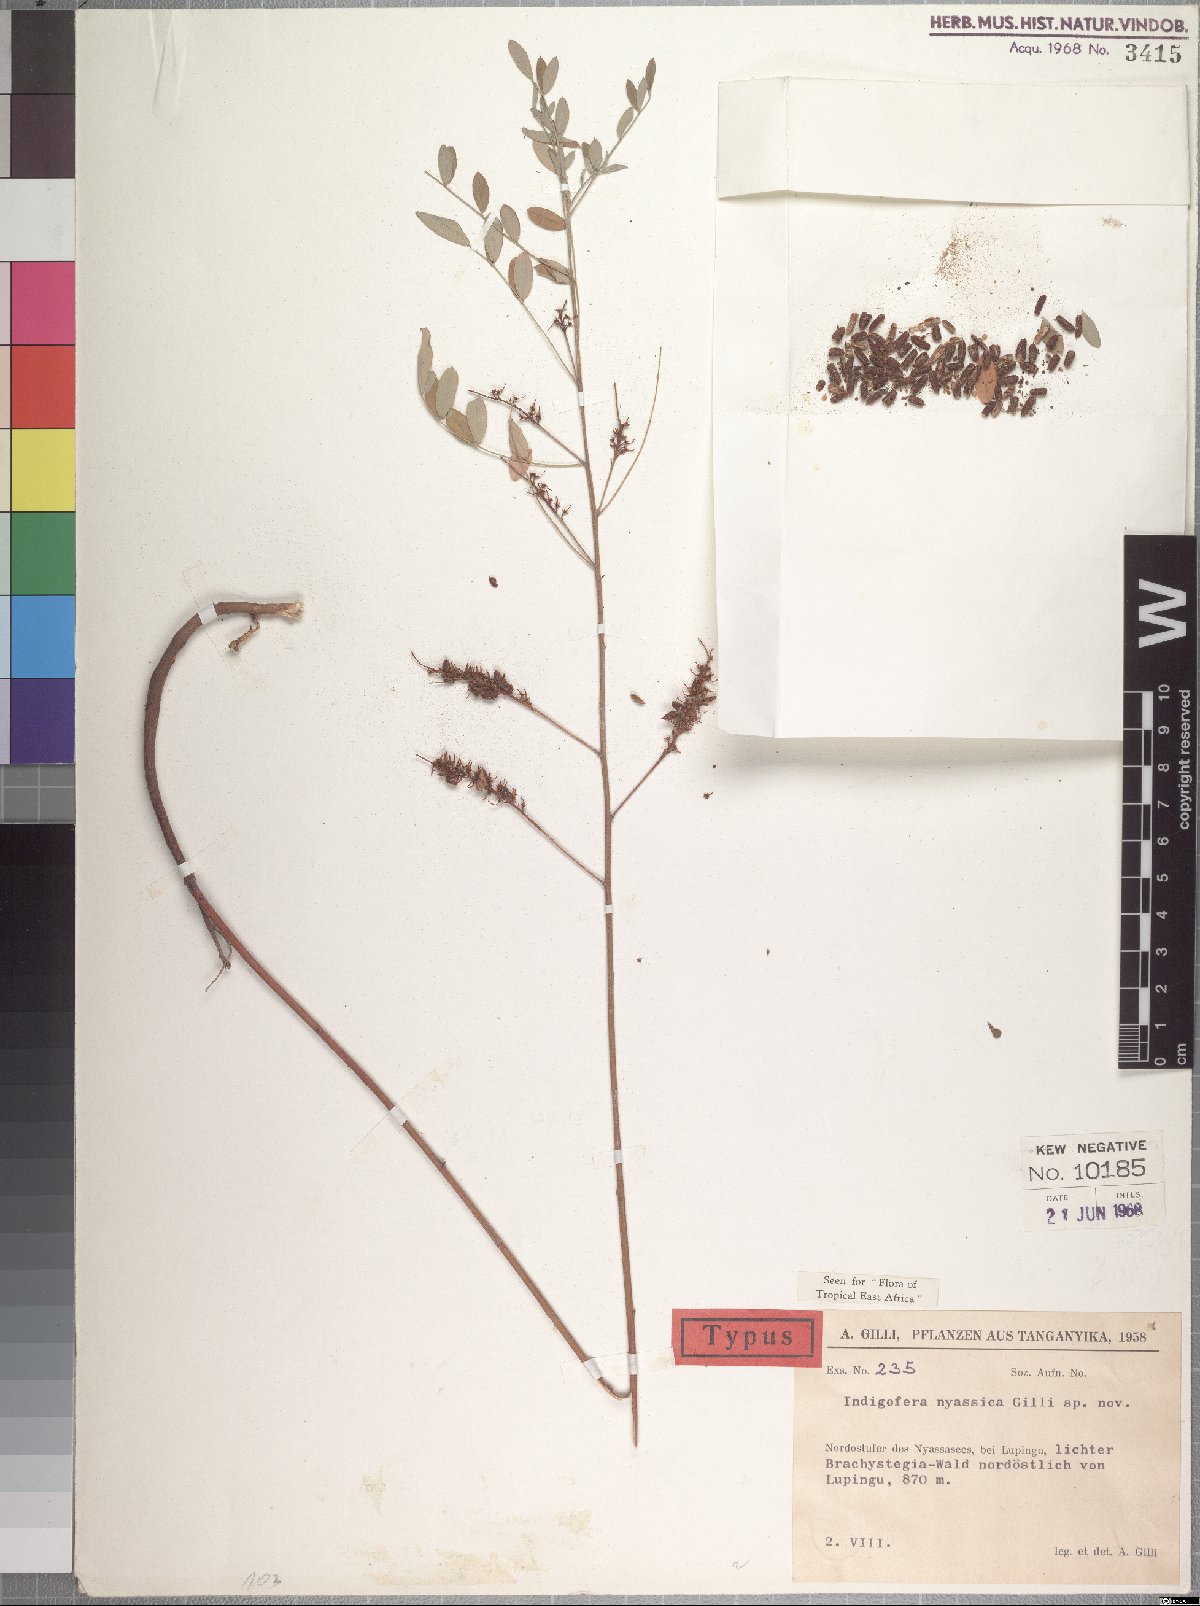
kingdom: Plantae
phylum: Tracheophyta
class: Magnoliopsida
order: Fabales
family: Fabaceae
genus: Indigofera
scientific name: Indigofera nyassica
